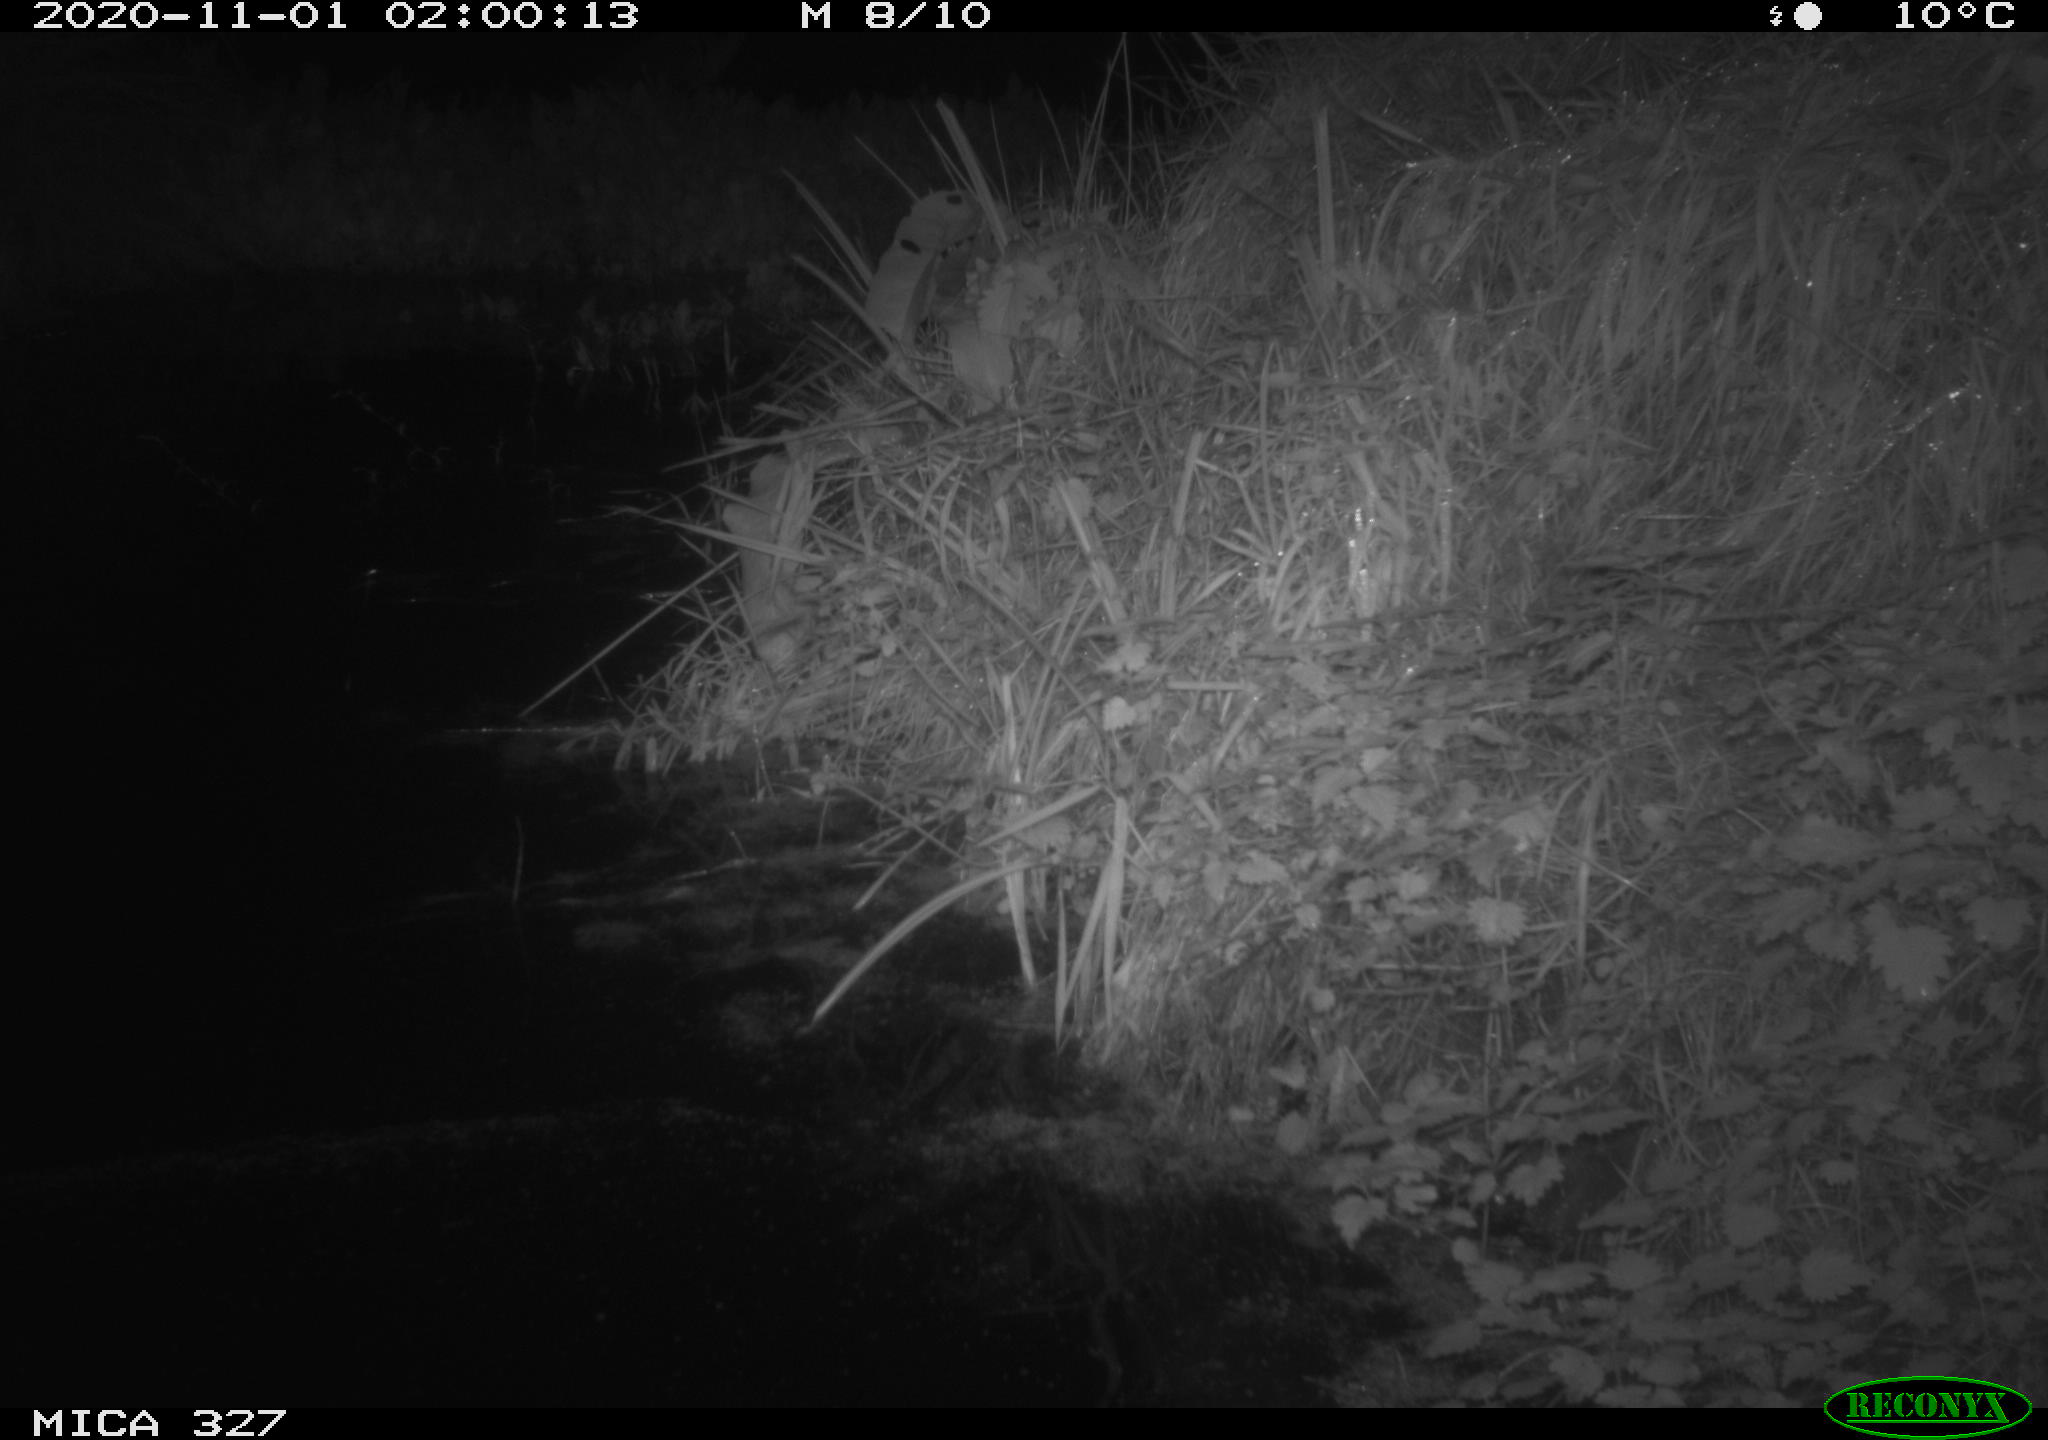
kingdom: Animalia
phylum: Chordata
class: Mammalia
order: Rodentia
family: Myocastoridae
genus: Myocastor
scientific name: Myocastor coypus
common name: Coypu
